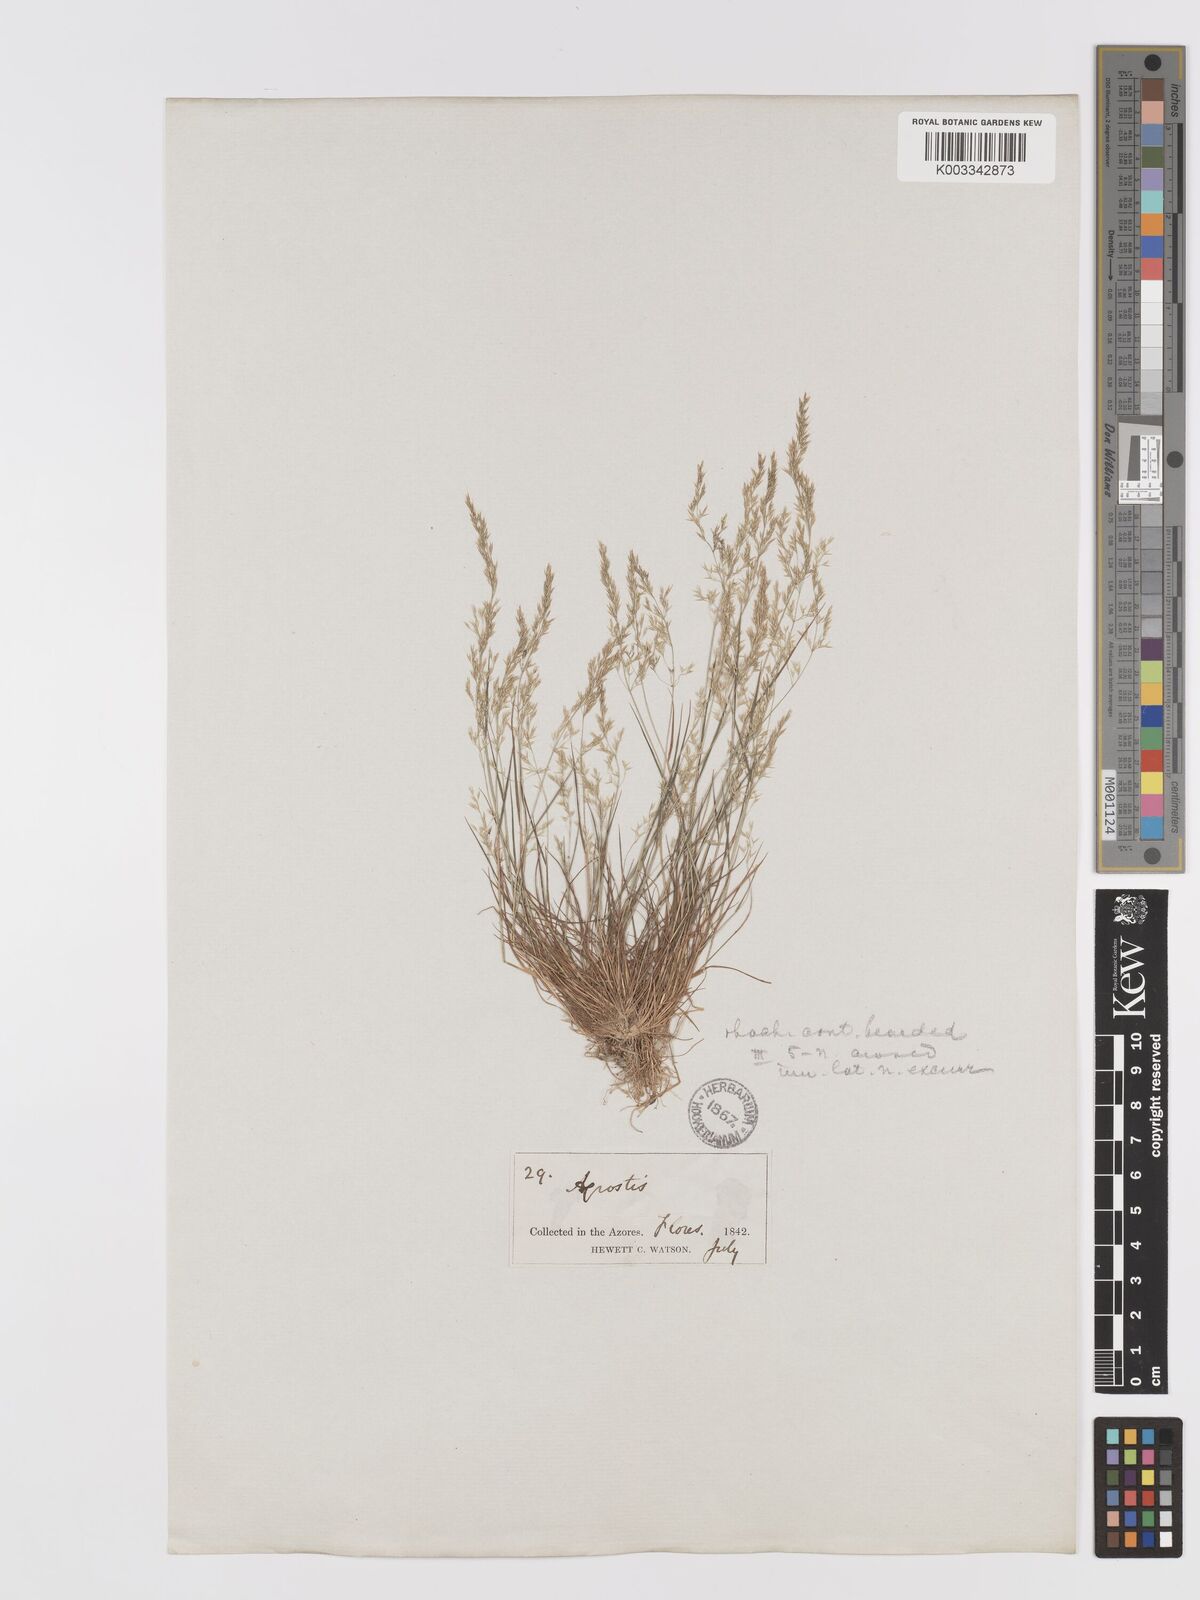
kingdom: Plantae
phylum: Tracheophyta
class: Liliopsida
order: Poales
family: Poaceae
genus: Agrostis
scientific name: Agrostis castellana
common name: Highland bent
